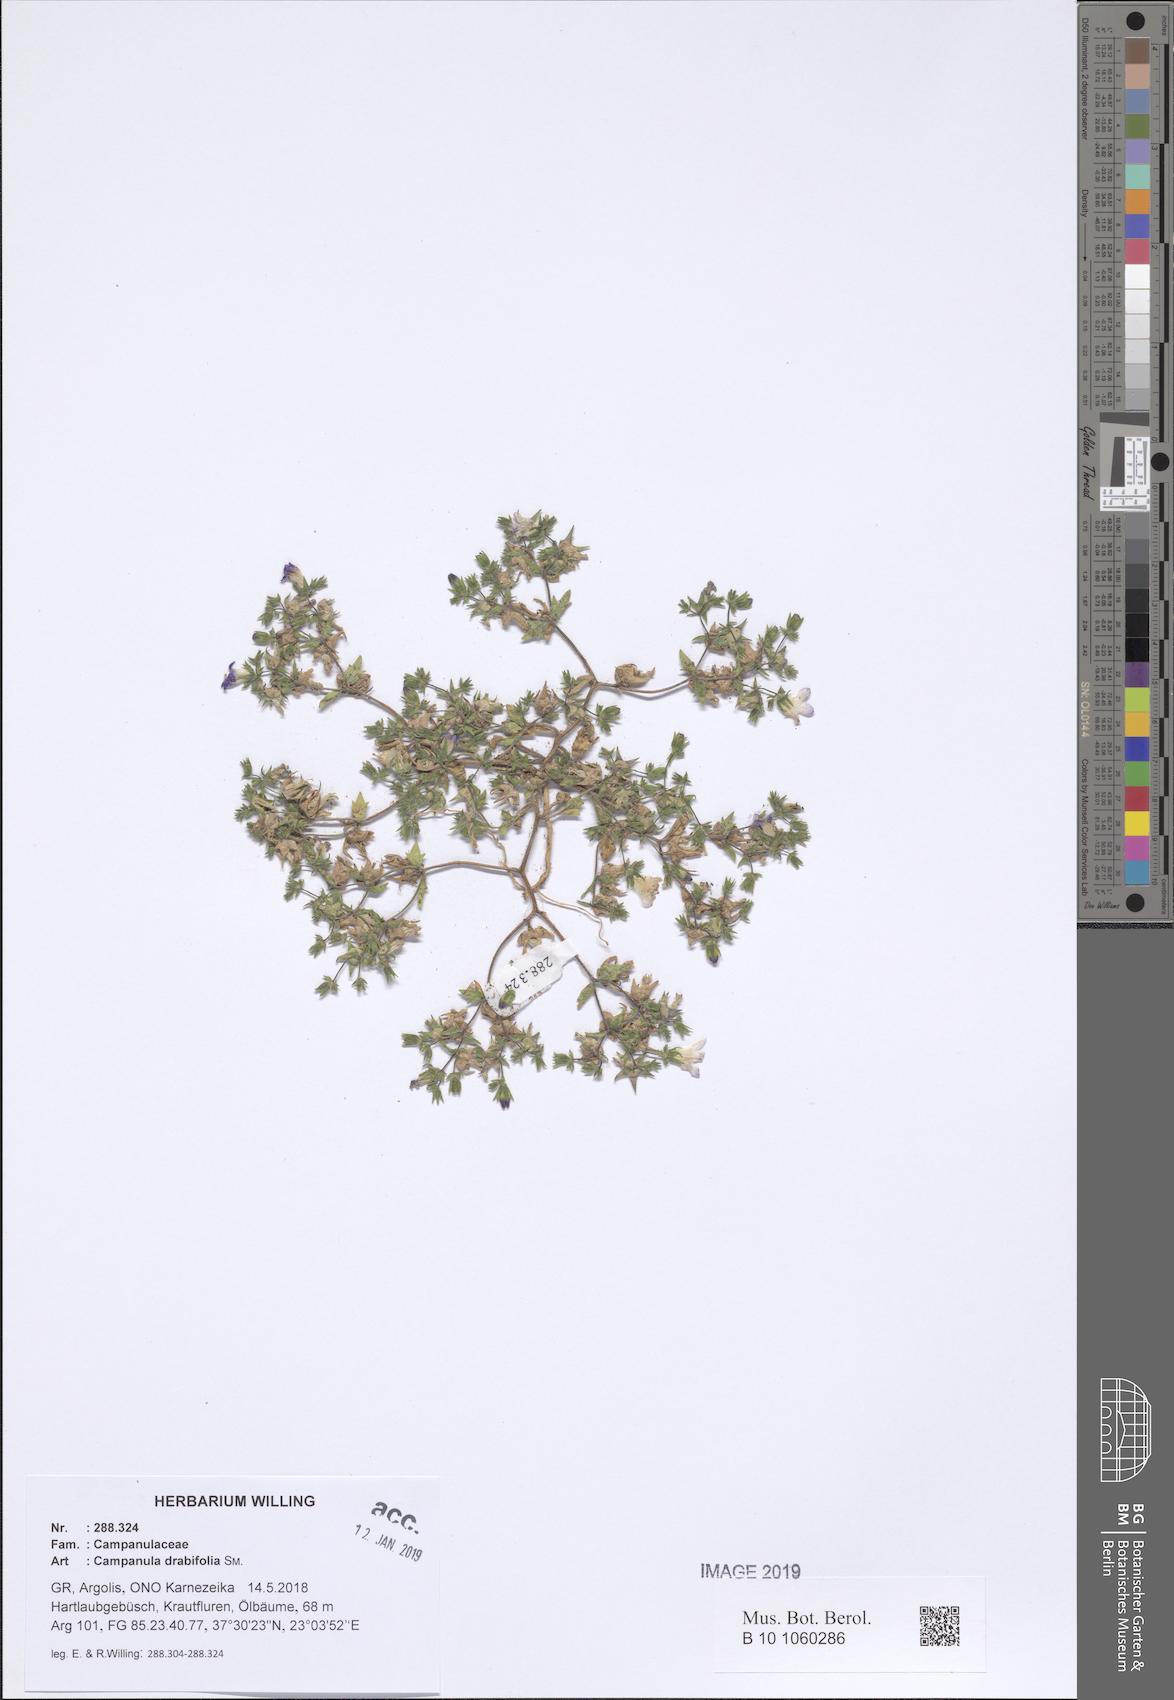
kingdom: Plantae
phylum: Tracheophyta
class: Magnoliopsida
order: Asterales
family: Campanulaceae
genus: Campanula
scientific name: Campanula drabifolia
